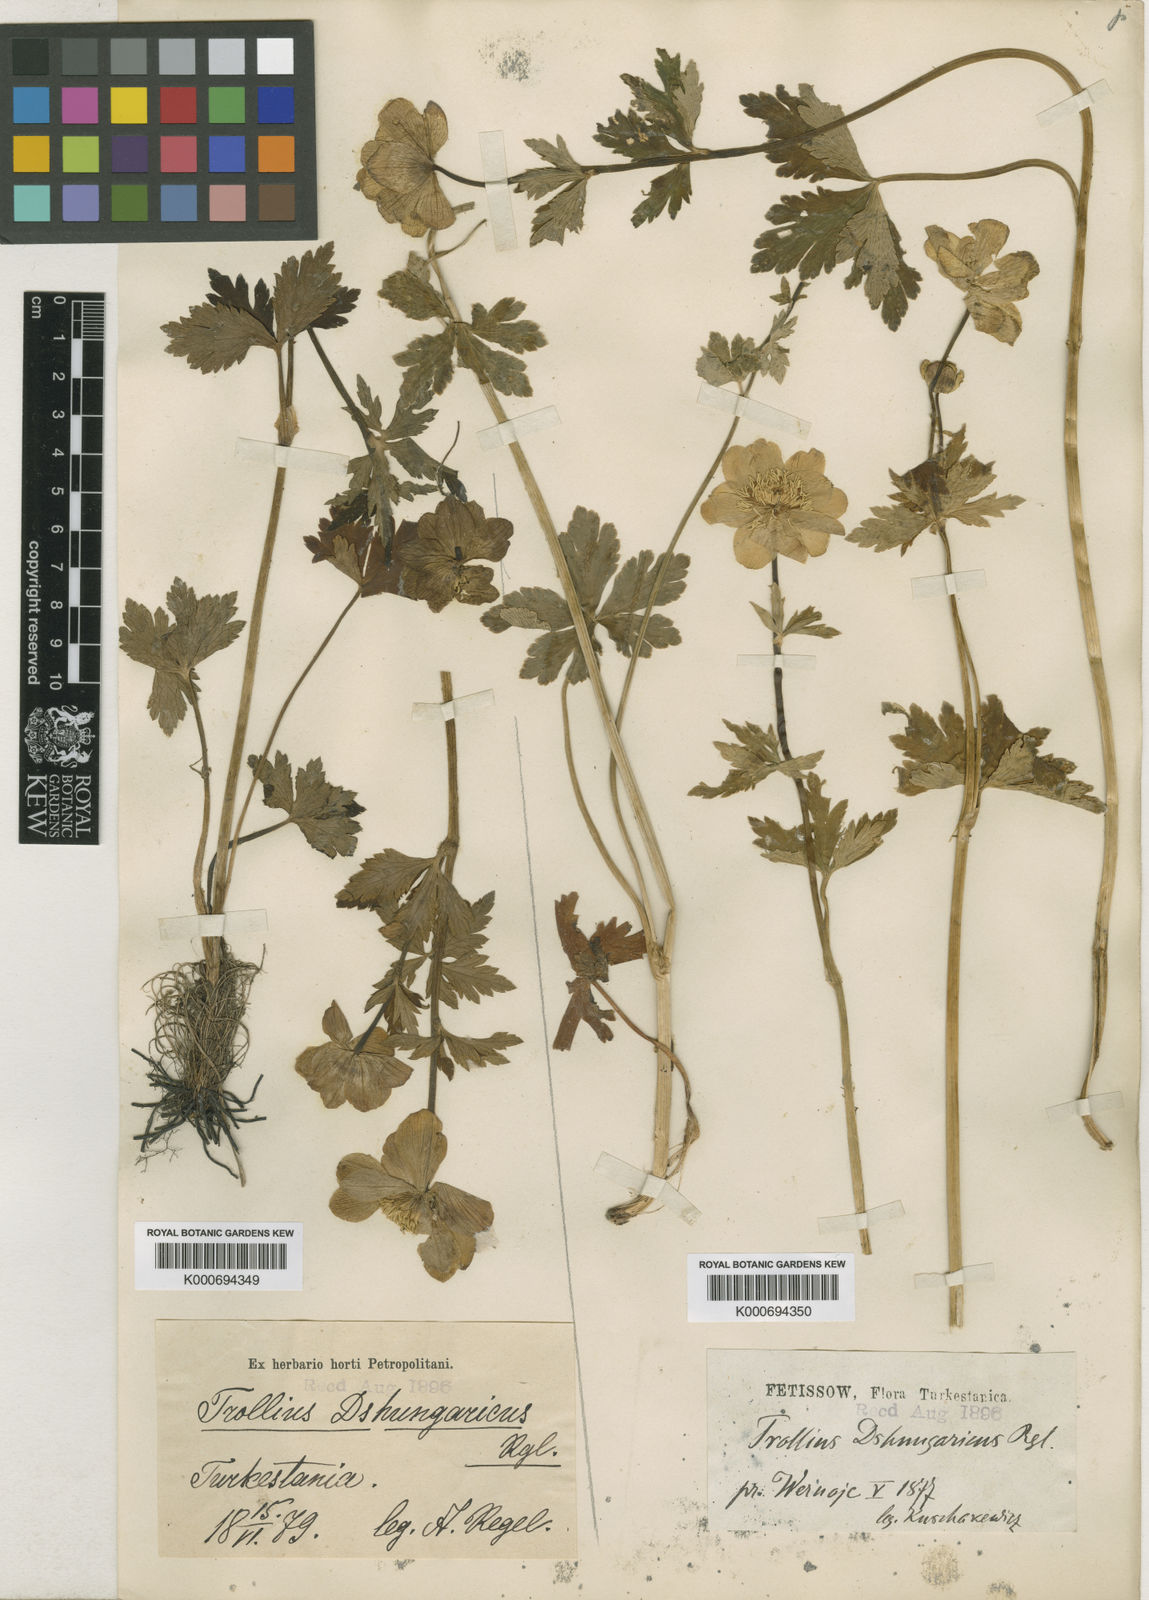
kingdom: Plantae
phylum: Tracheophyta
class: Magnoliopsida
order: Ranunculales
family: Ranunculaceae
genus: Trollius
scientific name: Trollius
